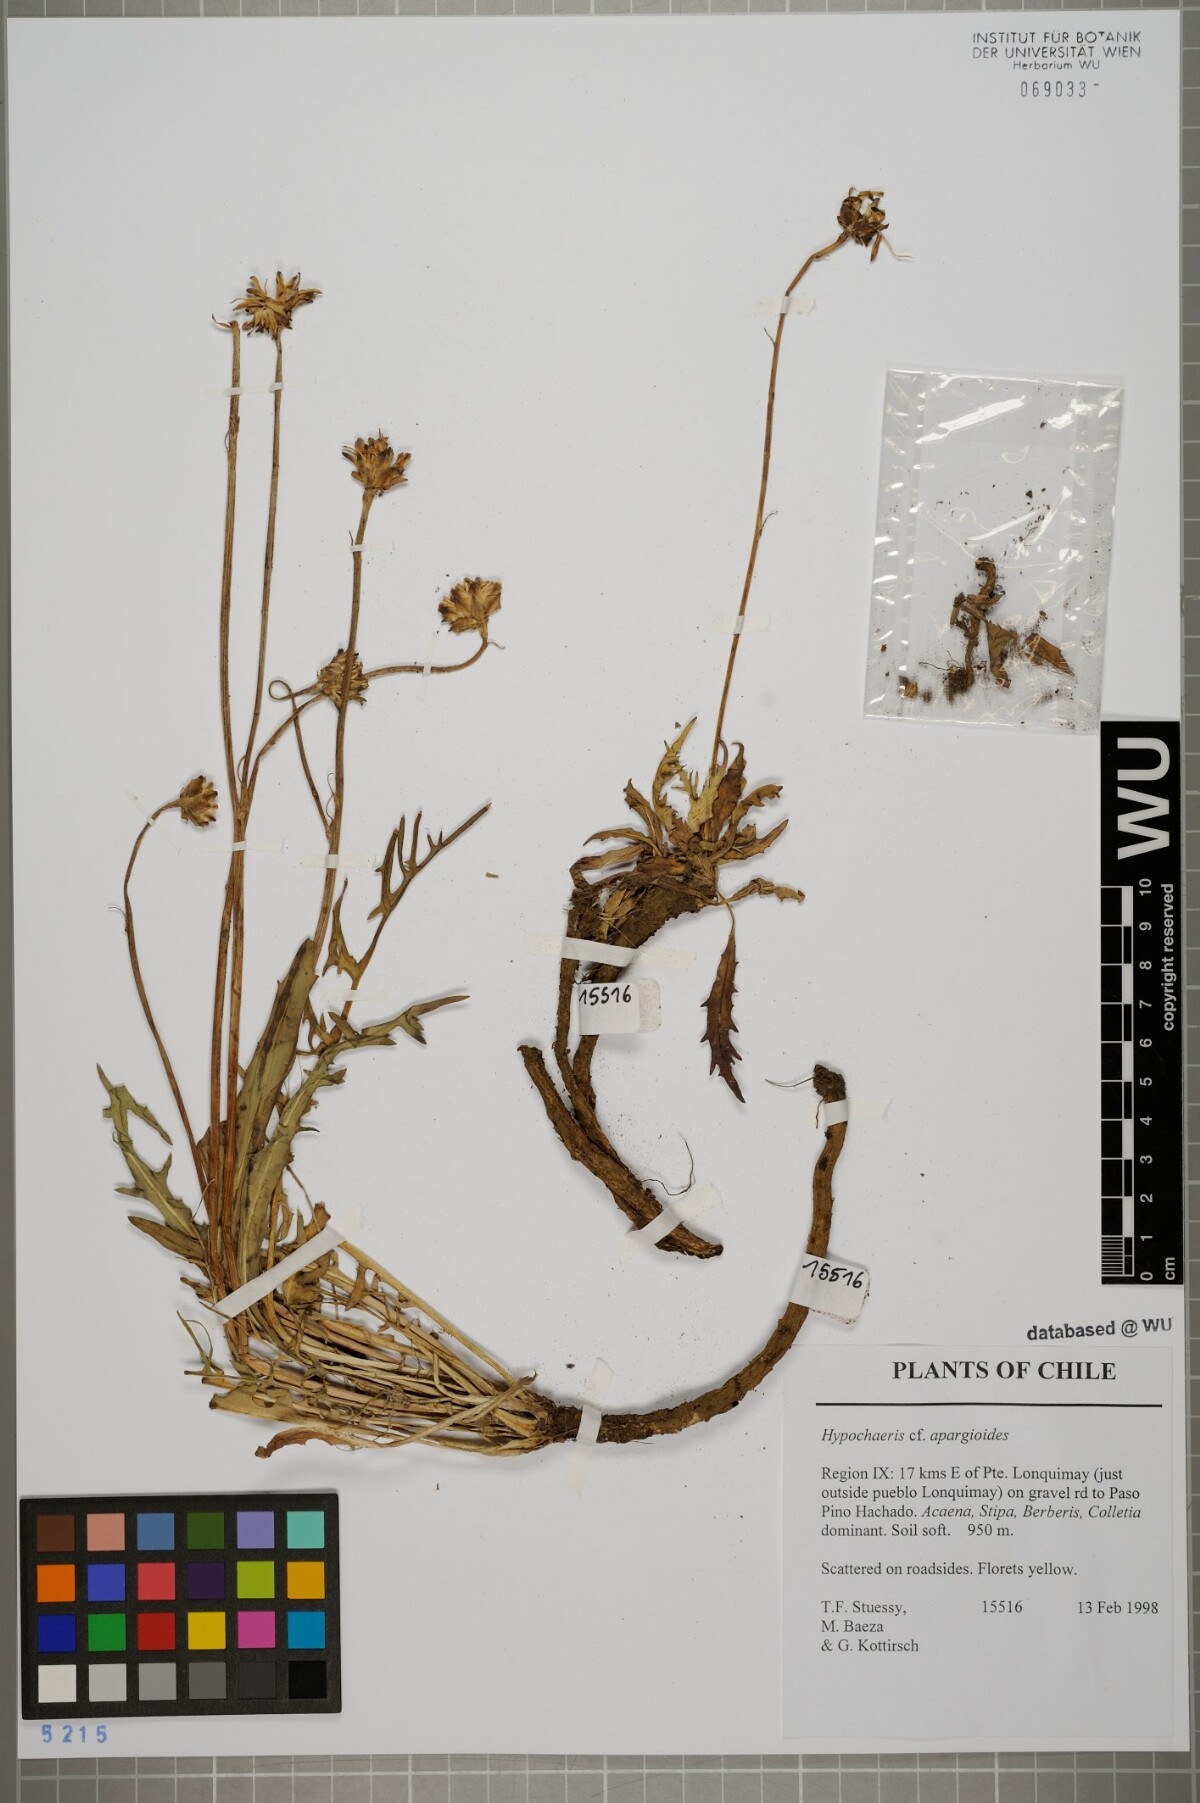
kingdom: Plantae
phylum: Tracheophyta
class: Magnoliopsida
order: Asterales
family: Asteraceae
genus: Hypochaeris
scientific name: Hypochaeris apargioides
